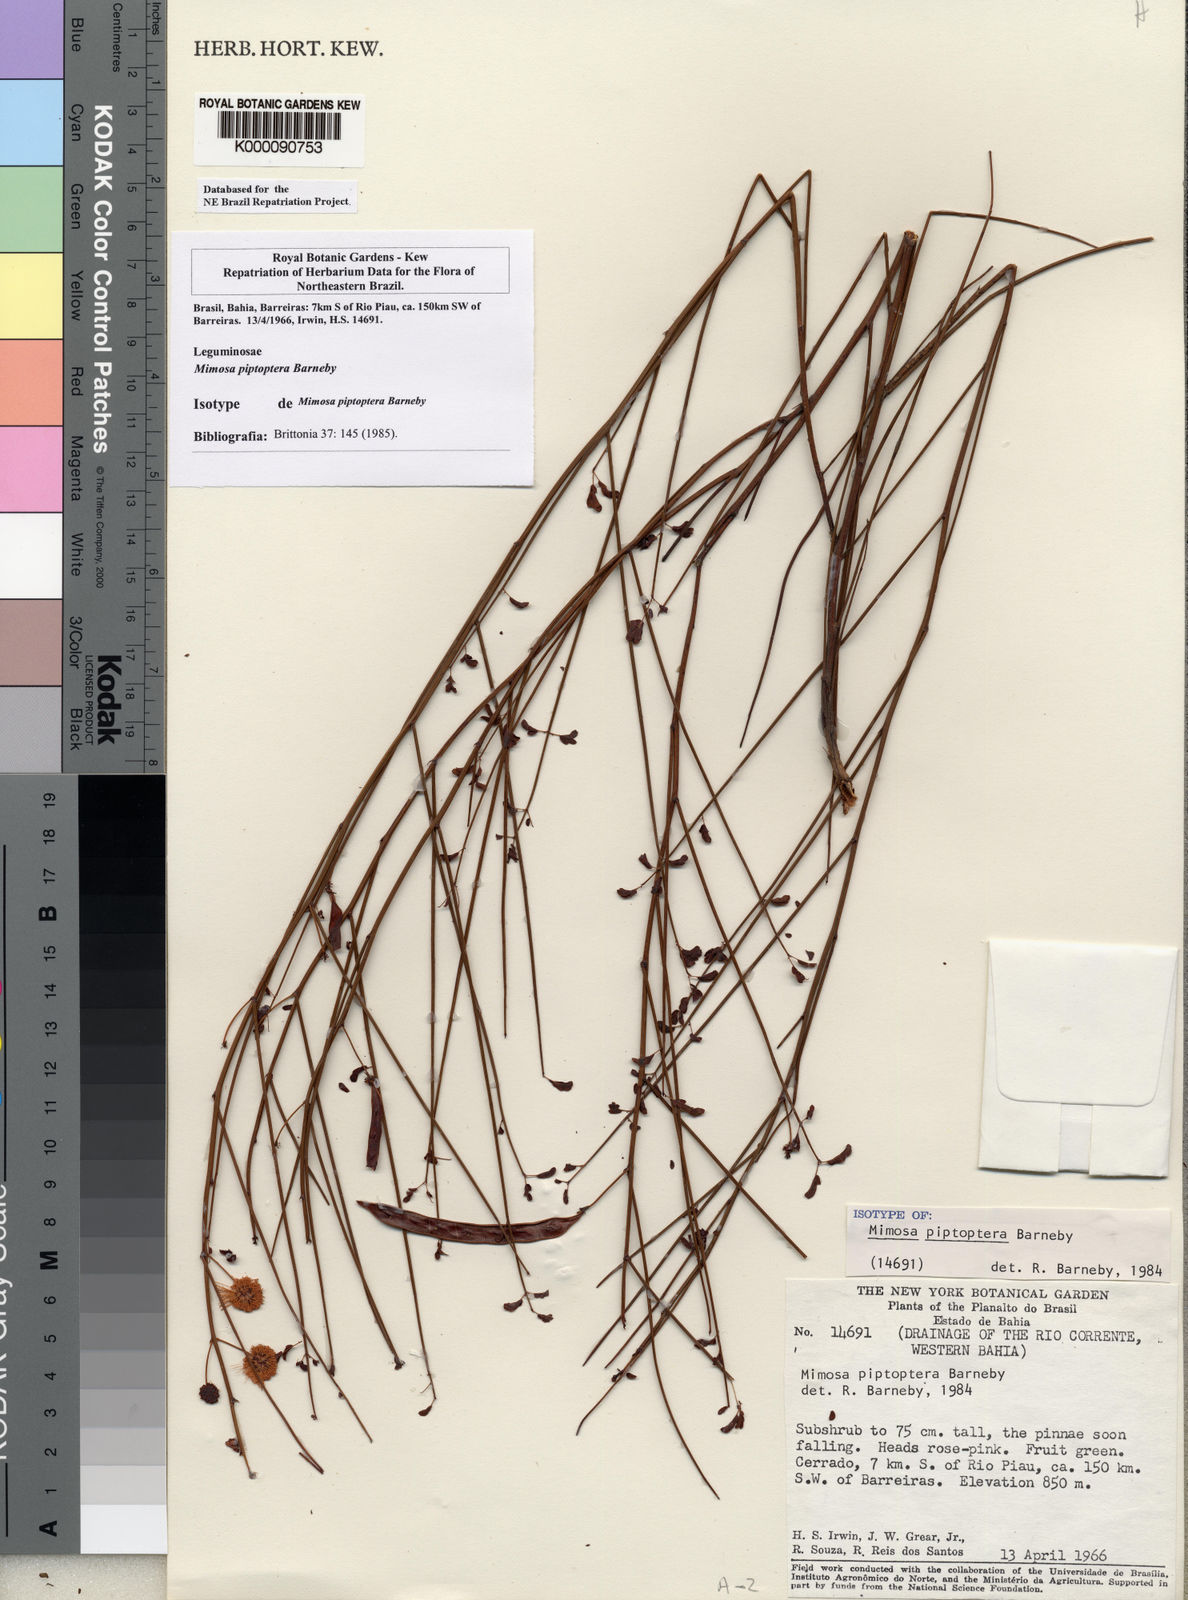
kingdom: Plantae
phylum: Tracheophyta
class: Magnoliopsida
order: Fabales
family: Fabaceae
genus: Mimosa
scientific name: Mimosa piptoptera
